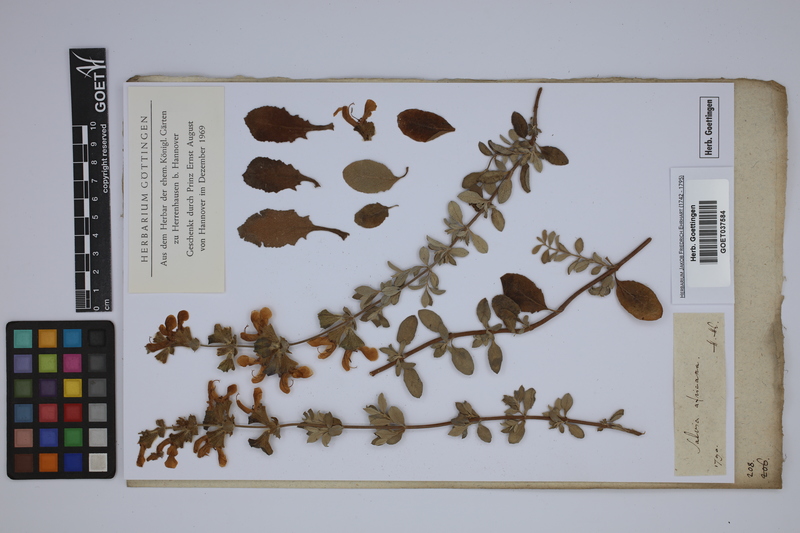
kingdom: Plantae
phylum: Tracheophyta
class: Magnoliopsida
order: Lamiales
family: Lamiaceae
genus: Salvia
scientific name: Salvia africana
